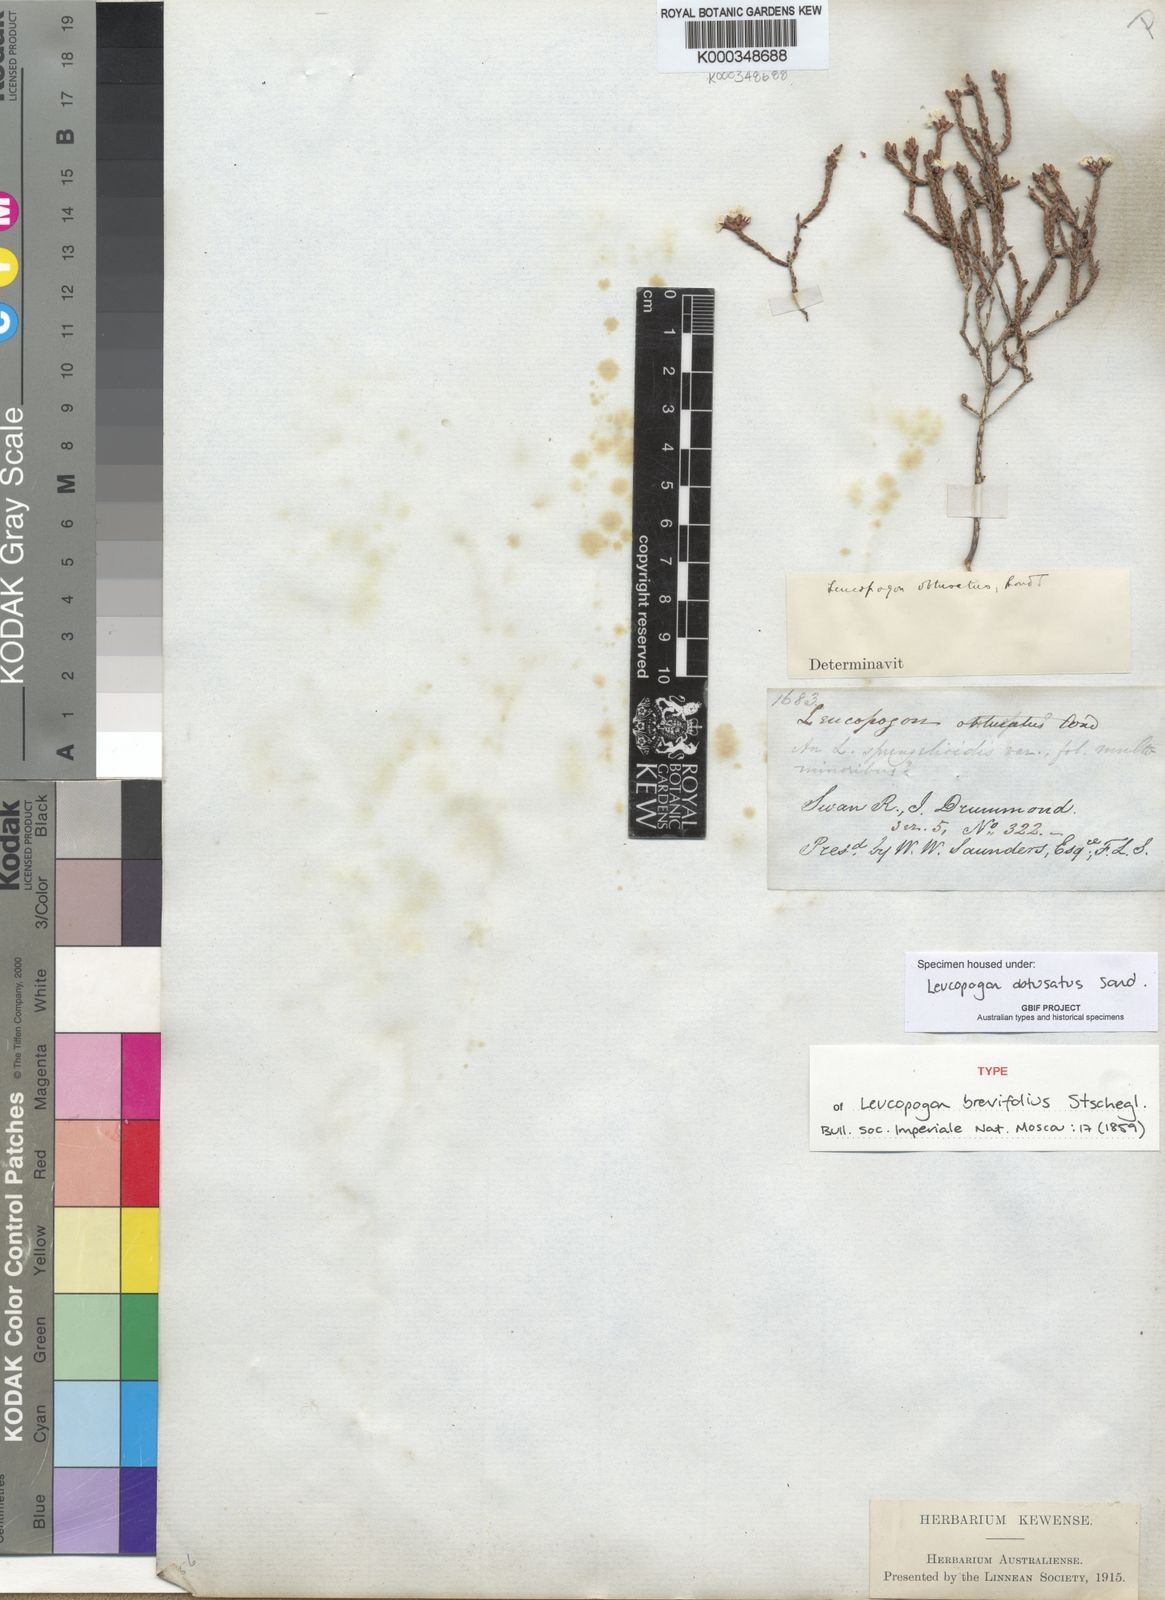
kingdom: Plantae
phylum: Tracheophyta
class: Magnoliopsida
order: Ericales
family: Ericaceae
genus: Leucopogon
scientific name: Leucopogon obtusatus
